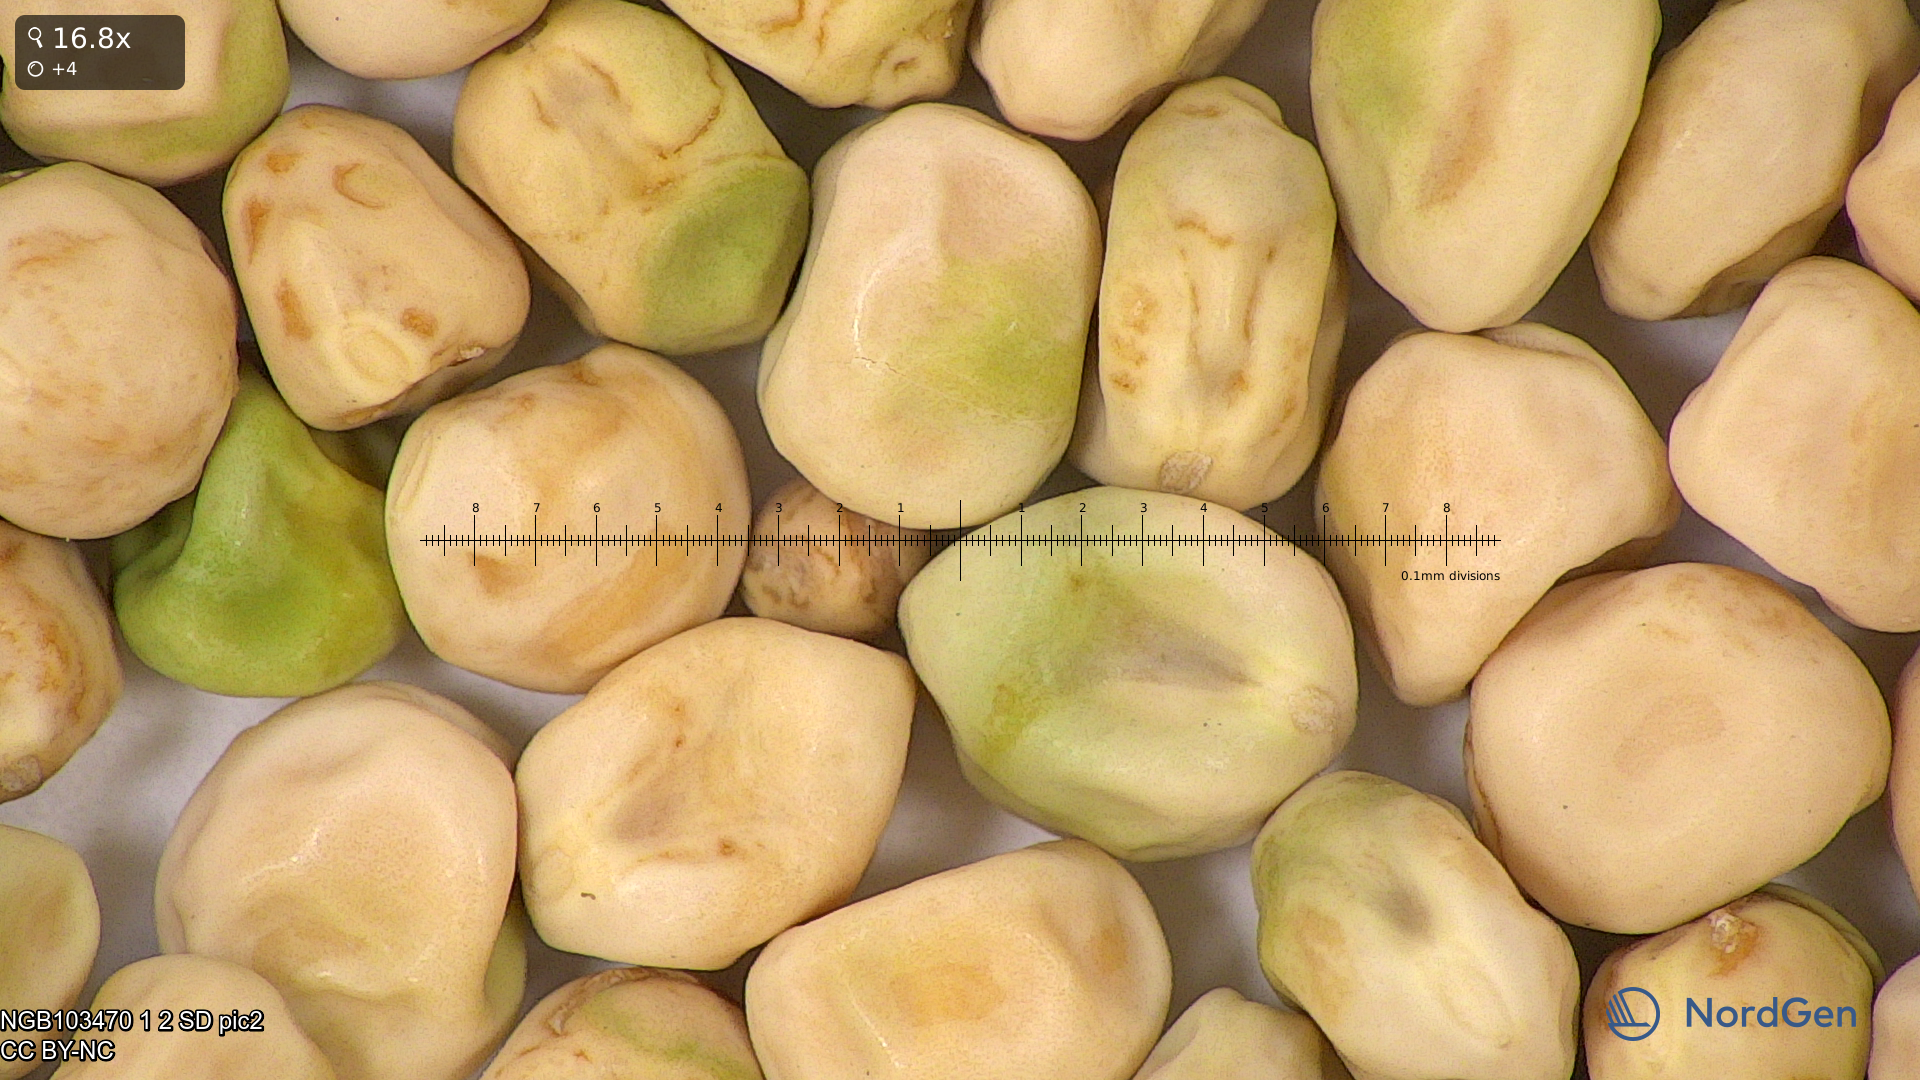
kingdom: Plantae
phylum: Tracheophyta
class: Magnoliopsida
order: Fabales
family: Fabaceae
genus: Lathyrus
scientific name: Lathyrus oleraceus
